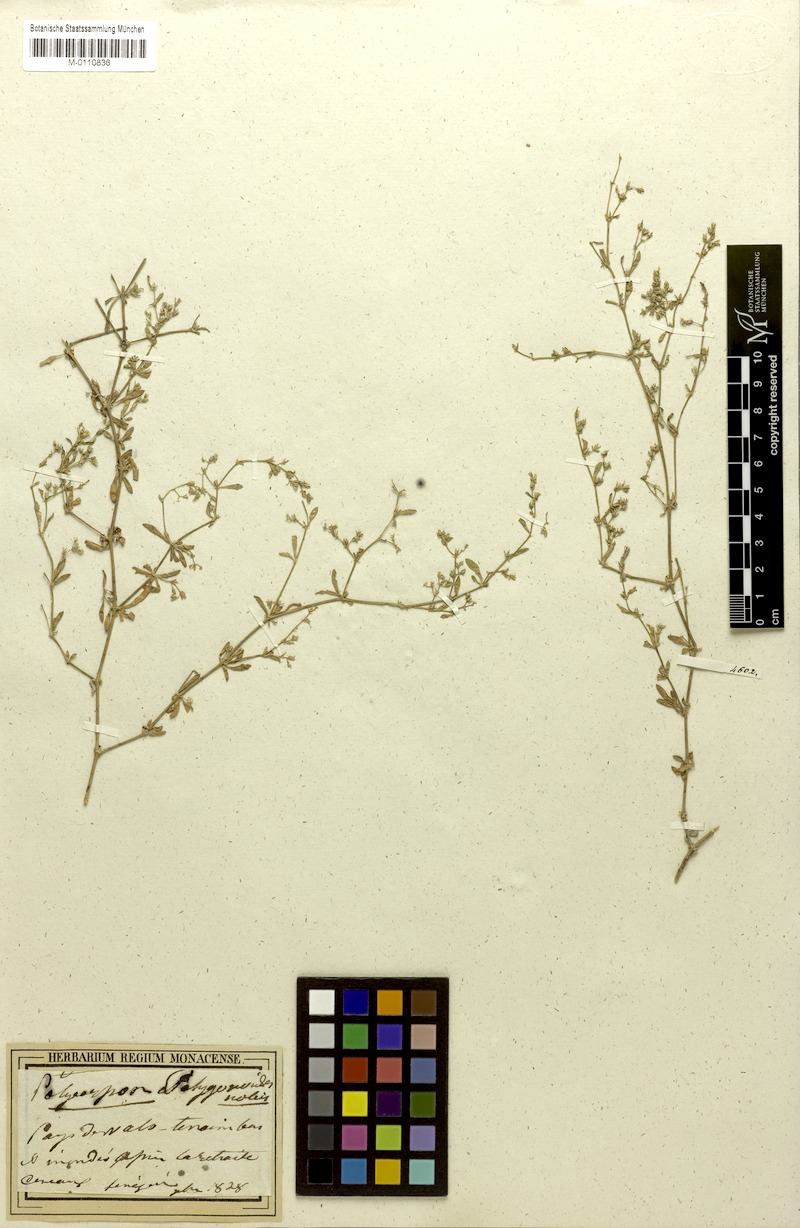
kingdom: Plantae
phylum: Tracheophyta
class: Magnoliopsida
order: Caryophyllales
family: Caryophyllaceae
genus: Polycarpon
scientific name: Polycarpon succulentum
